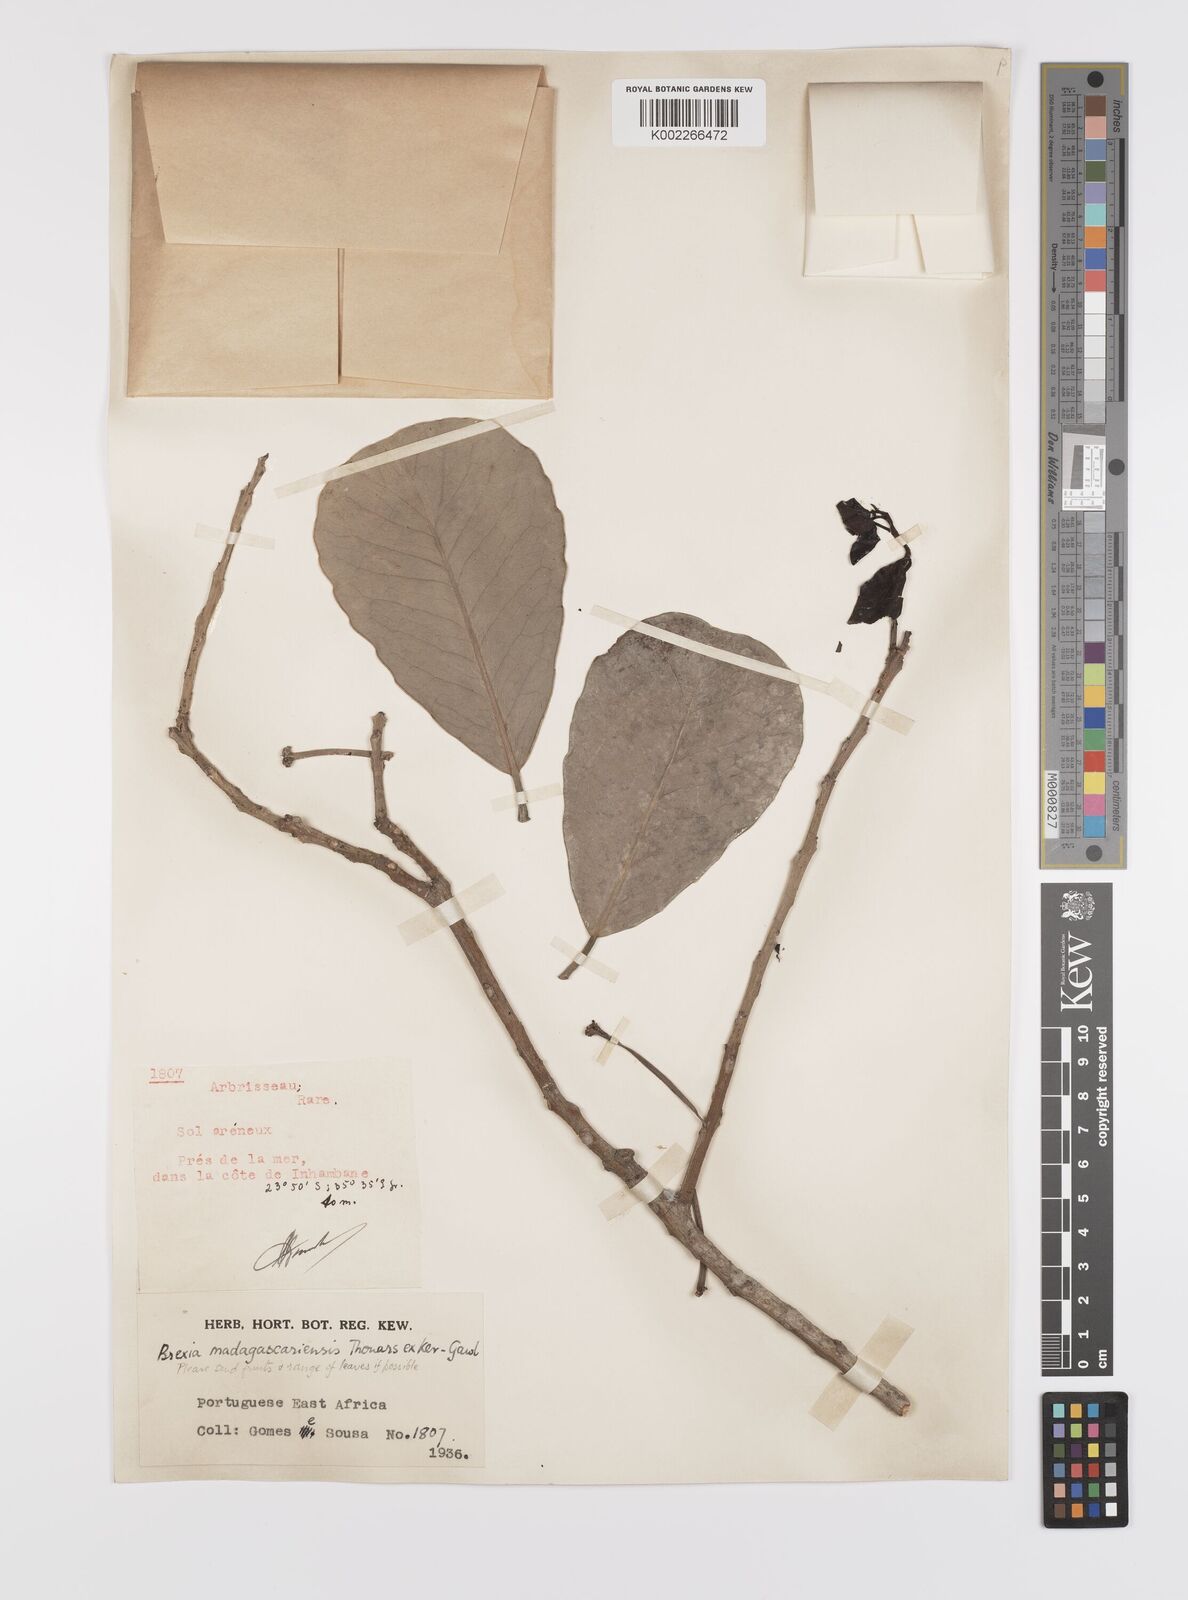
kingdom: Plantae
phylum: Tracheophyta
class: Magnoliopsida
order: Celastrales
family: Celastraceae
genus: Brexia
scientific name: Brexia madagascariensis
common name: Brexia
